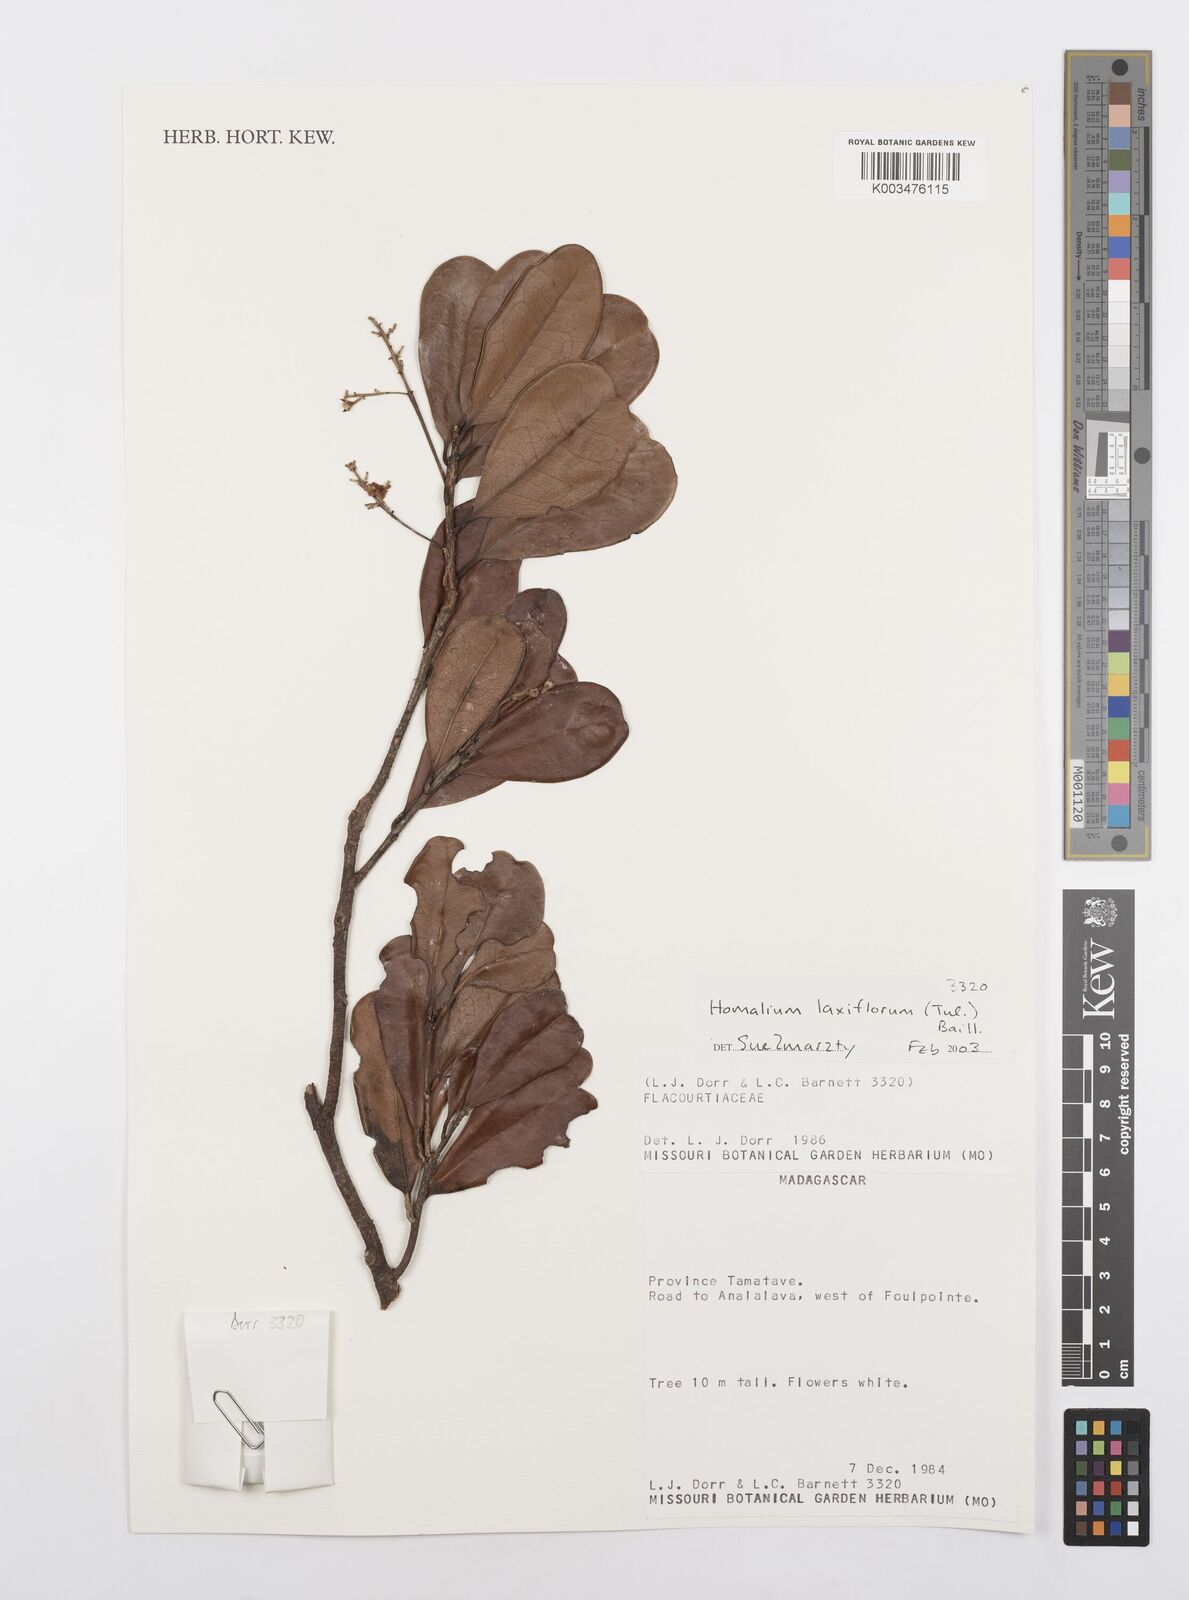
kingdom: Plantae
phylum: Tracheophyta
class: Magnoliopsida
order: Malpighiales
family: Salicaceae
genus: Homalium
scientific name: Homalium laxiflorum
